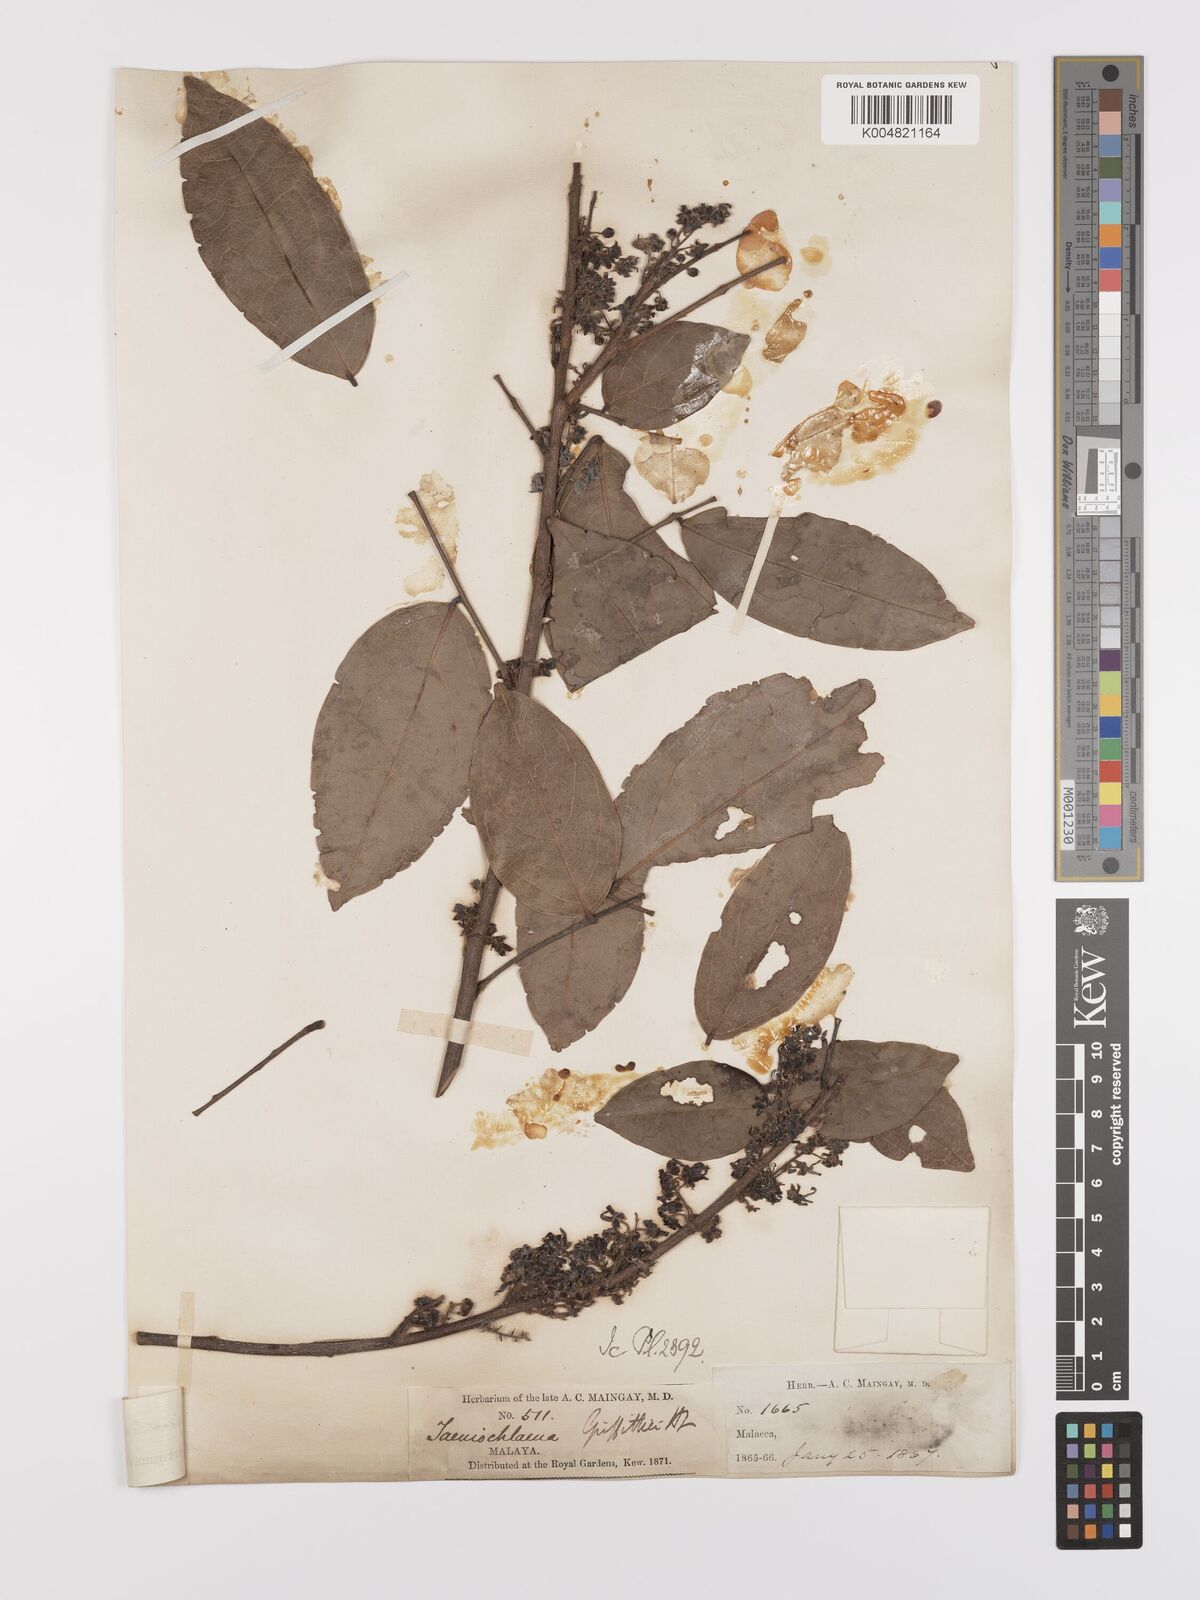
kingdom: Plantae
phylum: Tracheophyta
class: Magnoliopsida
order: Oxalidales
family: Connaraceae
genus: Rourea
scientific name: Rourea acutipetala
